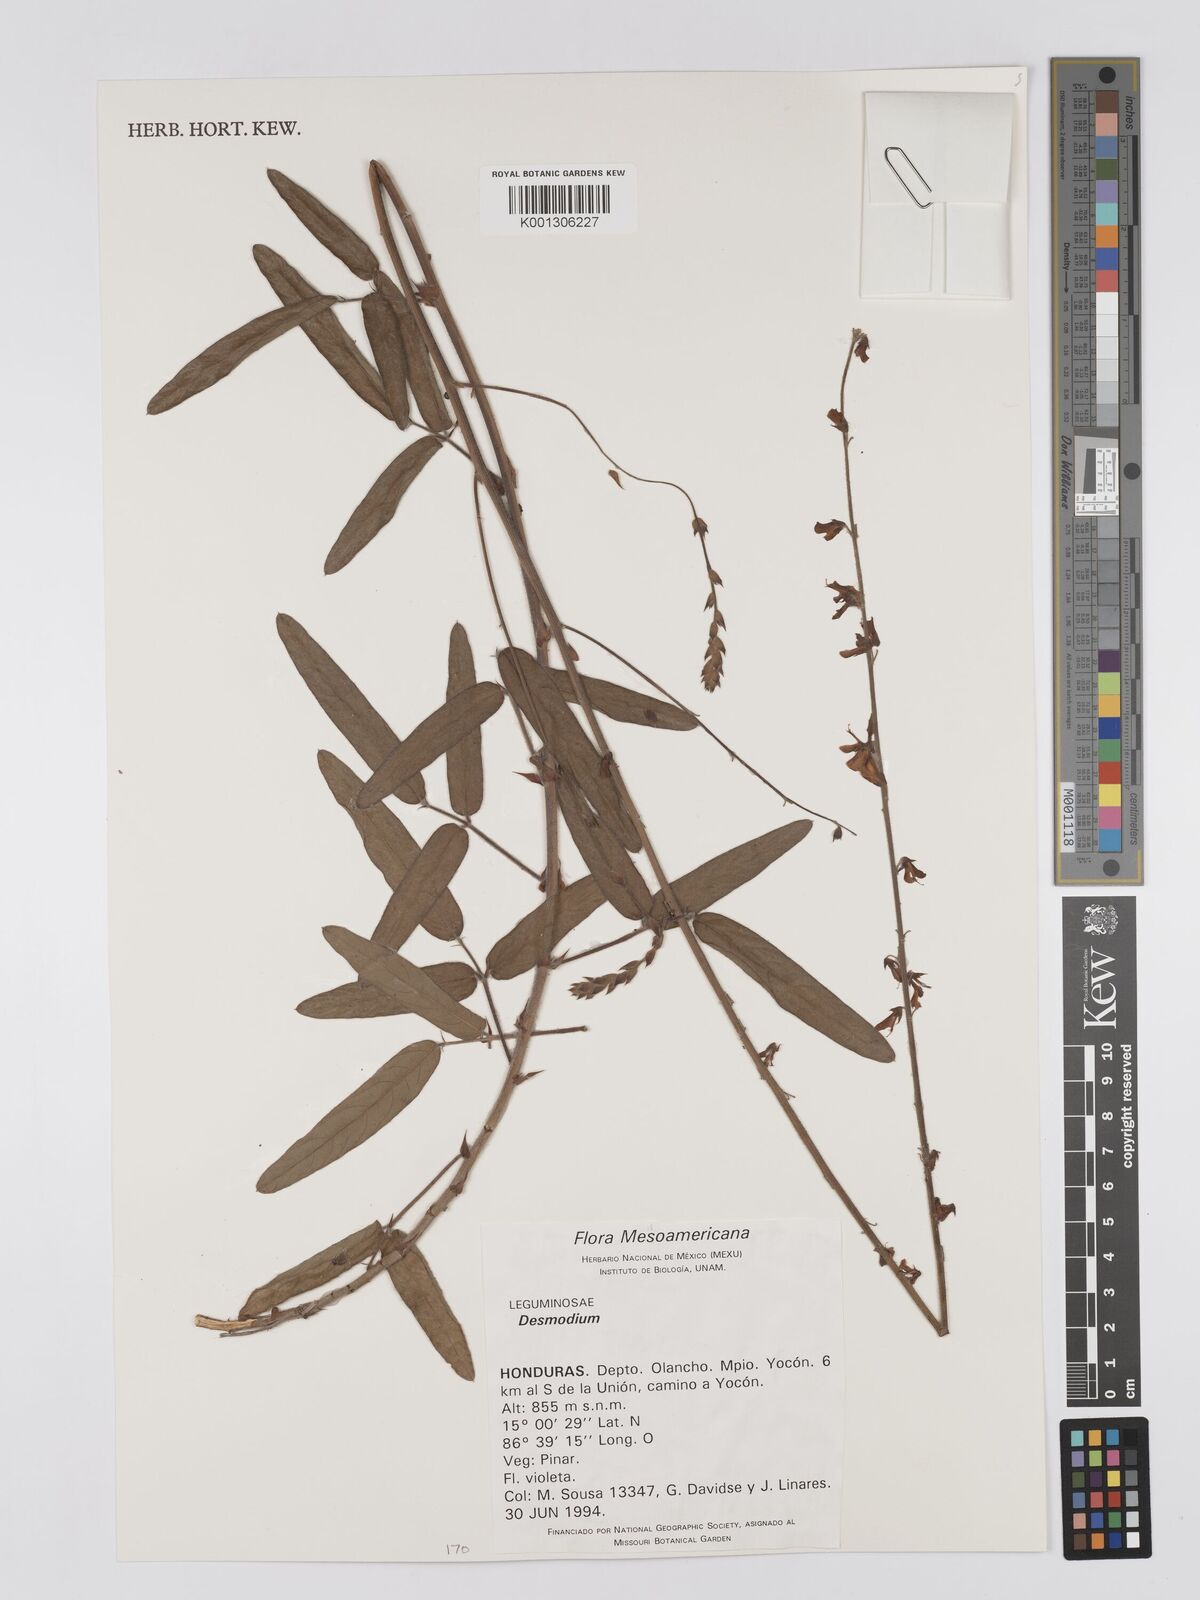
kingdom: Plantae
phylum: Tracheophyta
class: Magnoliopsida
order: Fabales
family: Fabaceae
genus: Desmodium
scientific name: Desmodium
